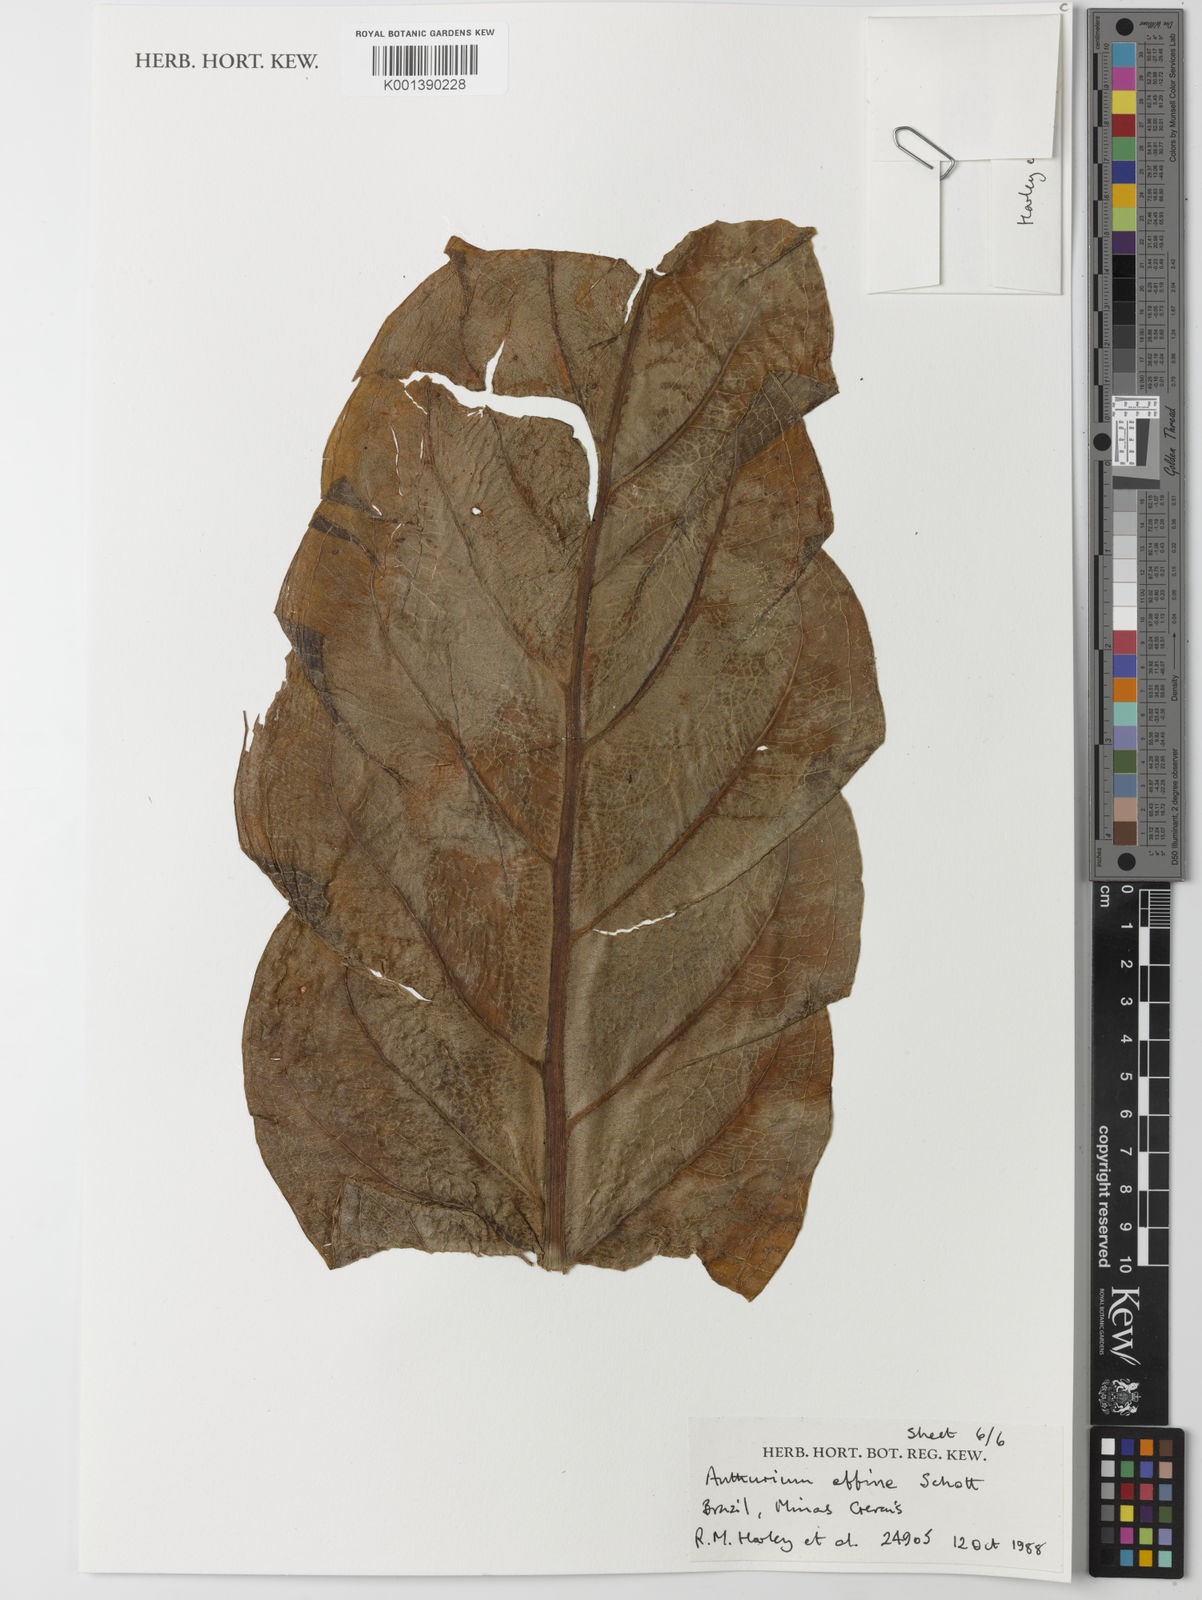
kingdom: Plantae
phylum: Tracheophyta
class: Liliopsida
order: Alismatales
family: Araceae
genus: Anthurium
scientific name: Anthurium affine
